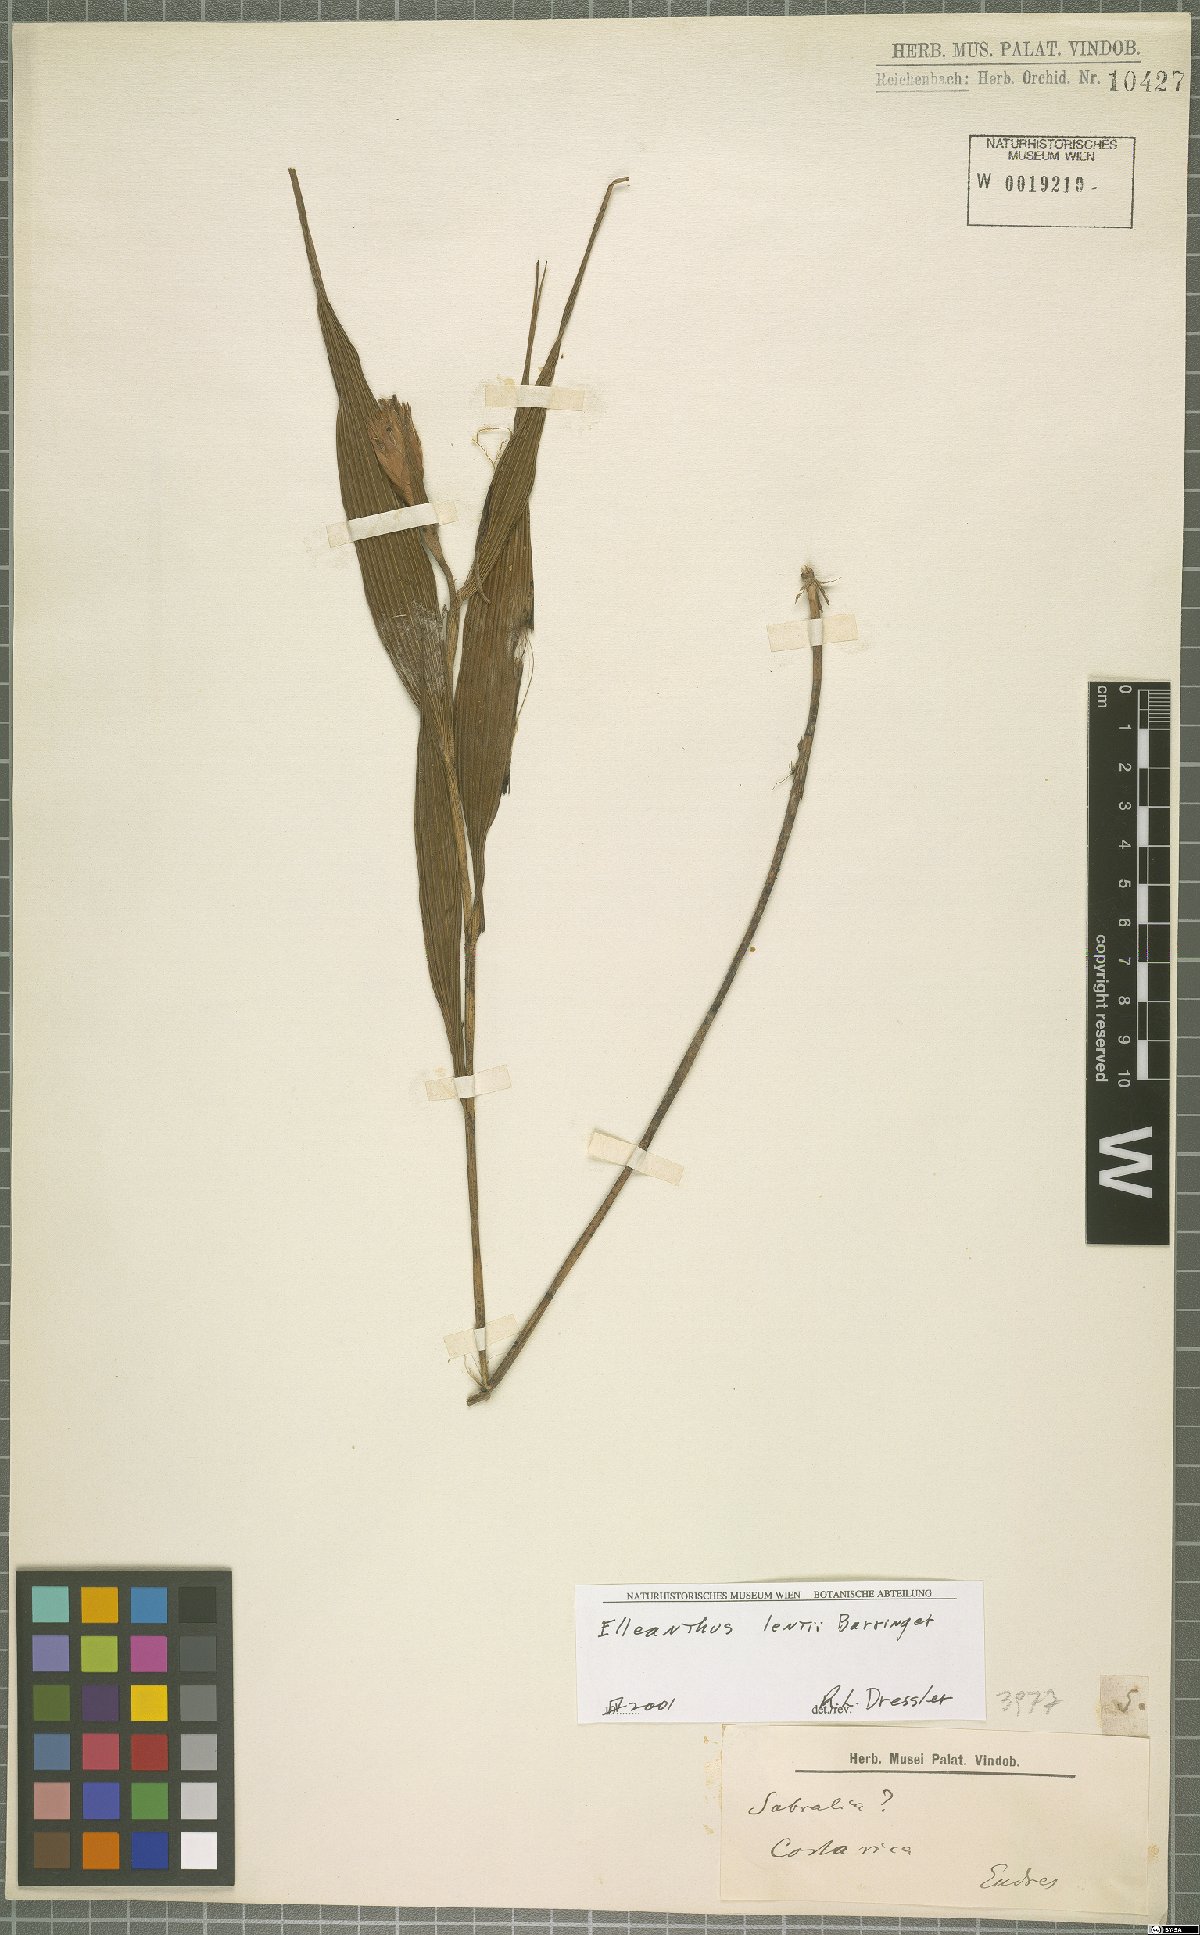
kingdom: Plantae
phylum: Tracheophyta
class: Liliopsida
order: Asparagales
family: Orchidaceae
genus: Elleanthus
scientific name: Elleanthus lentii
